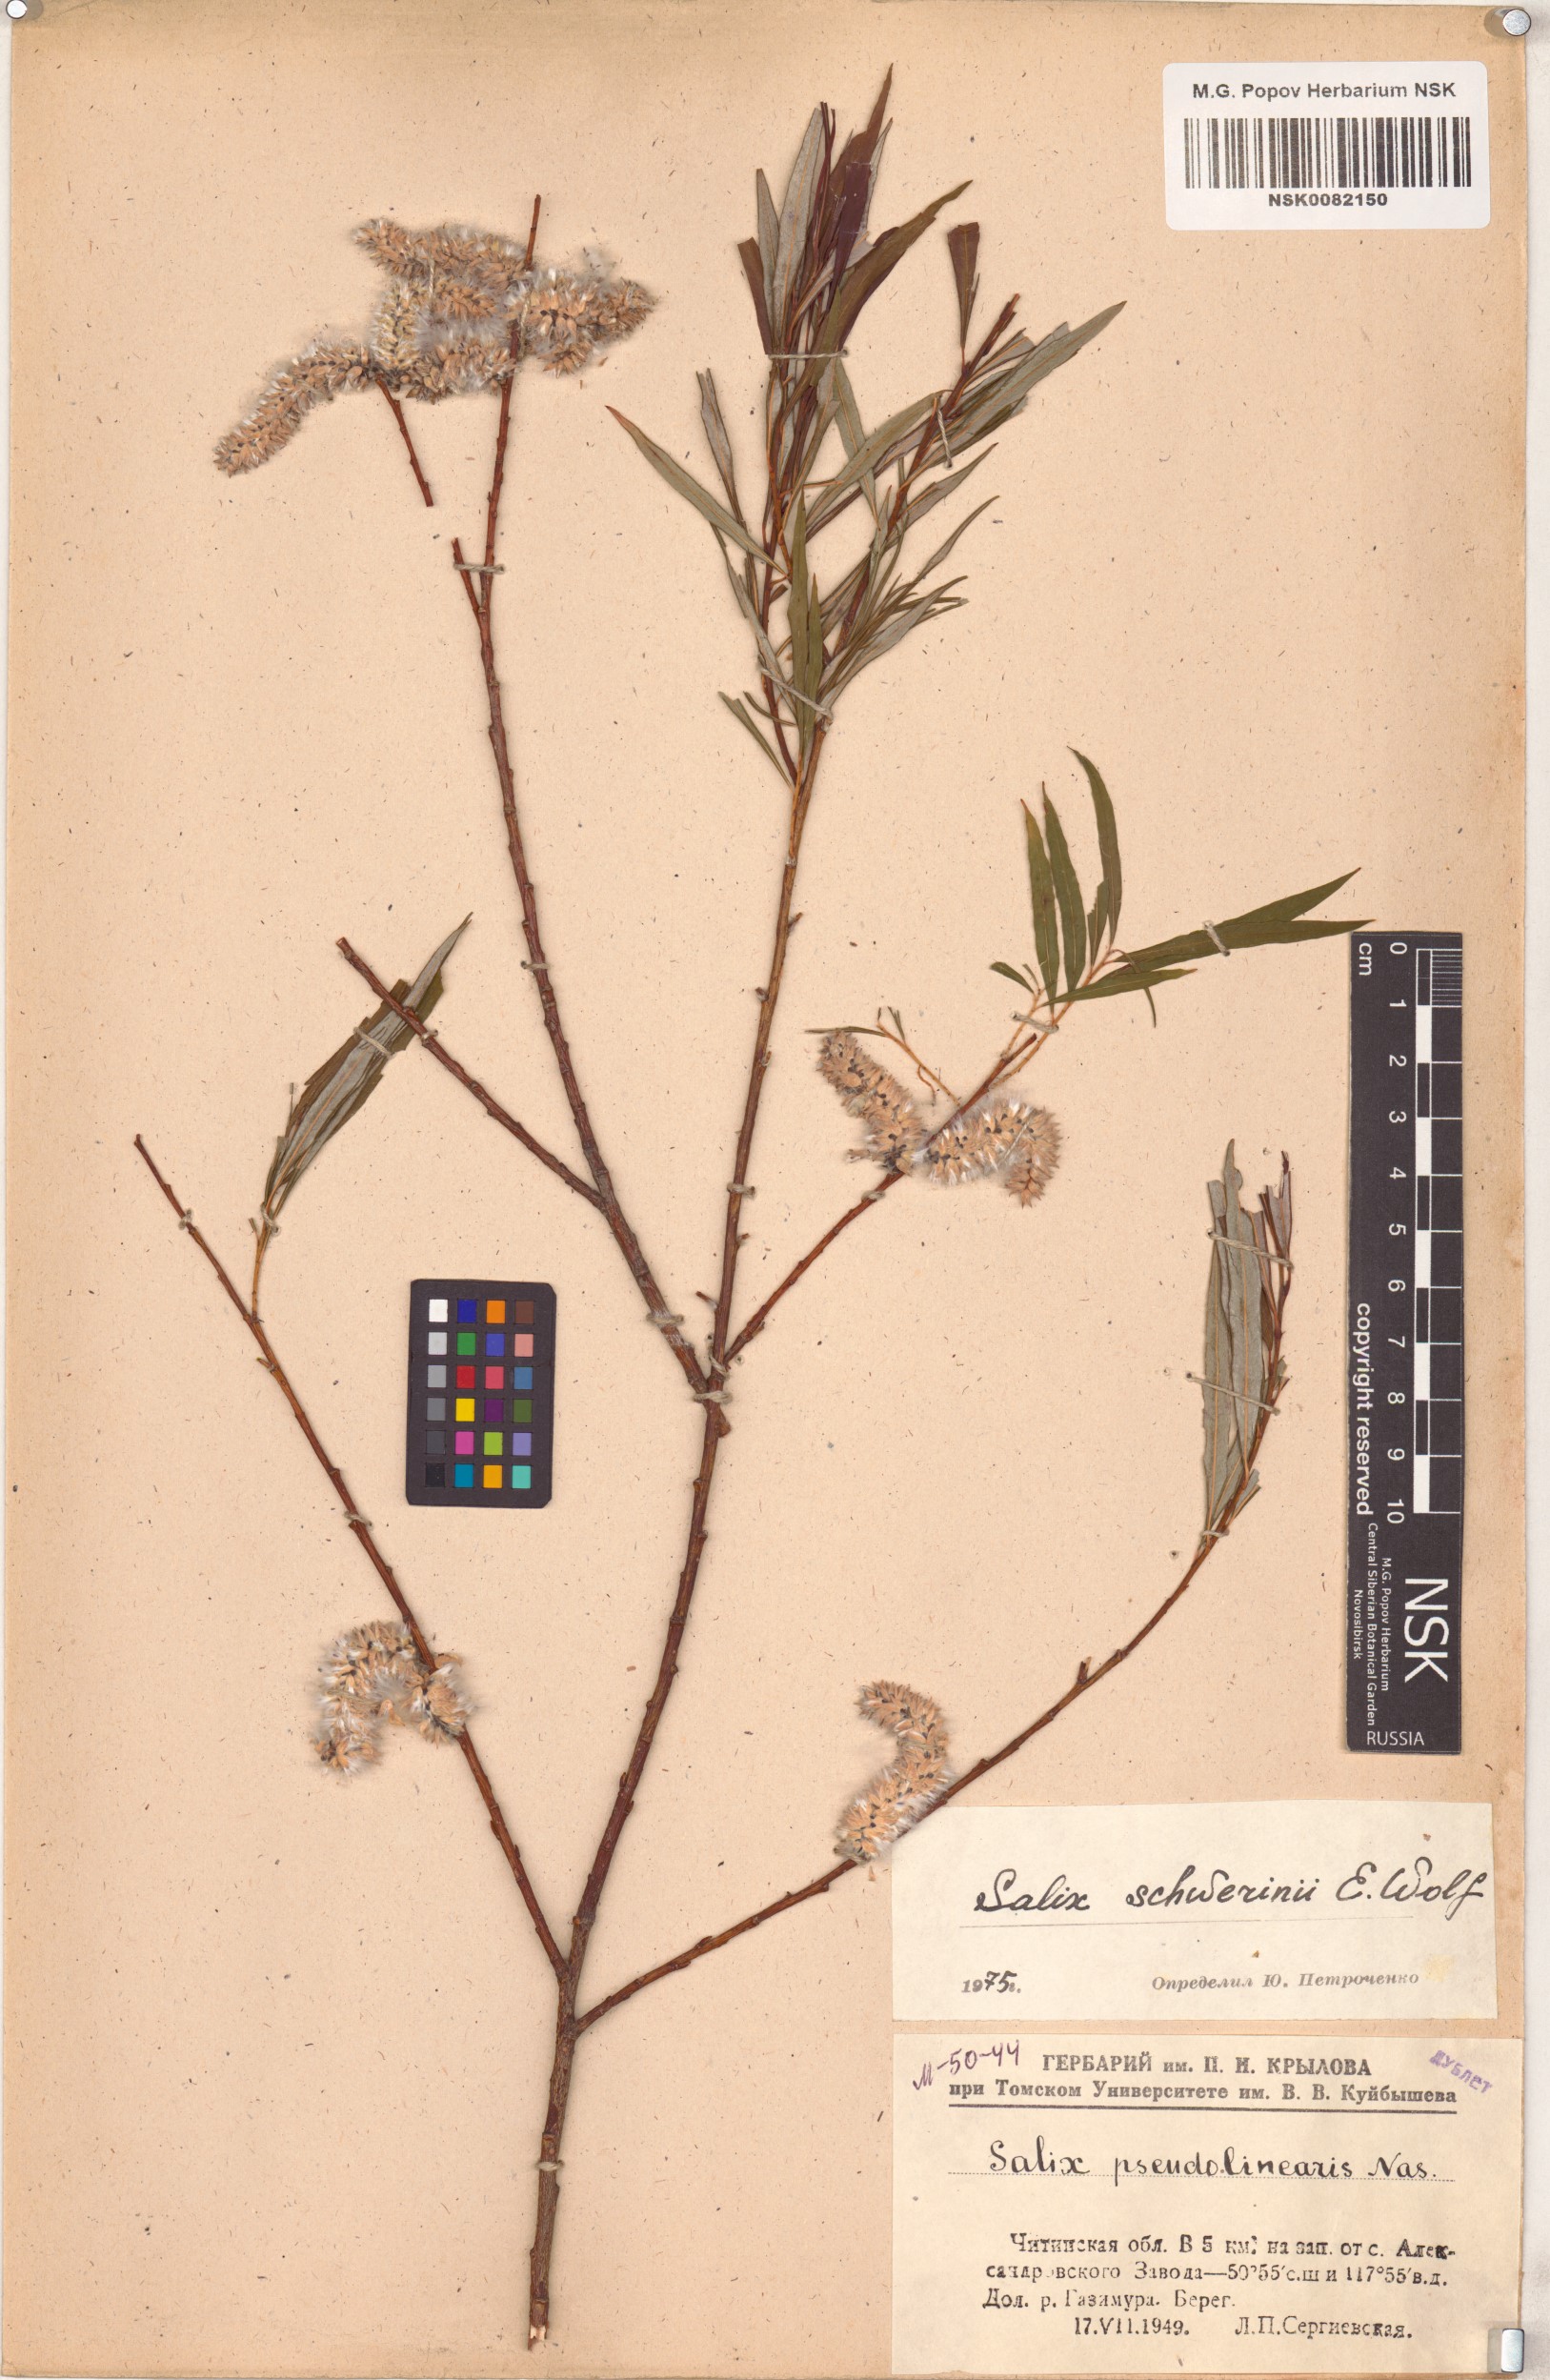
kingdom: Plantae
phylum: Tracheophyta
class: Magnoliopsida
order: Malpighiales
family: Salicaceae
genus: Salix
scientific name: Salix schwerinii
